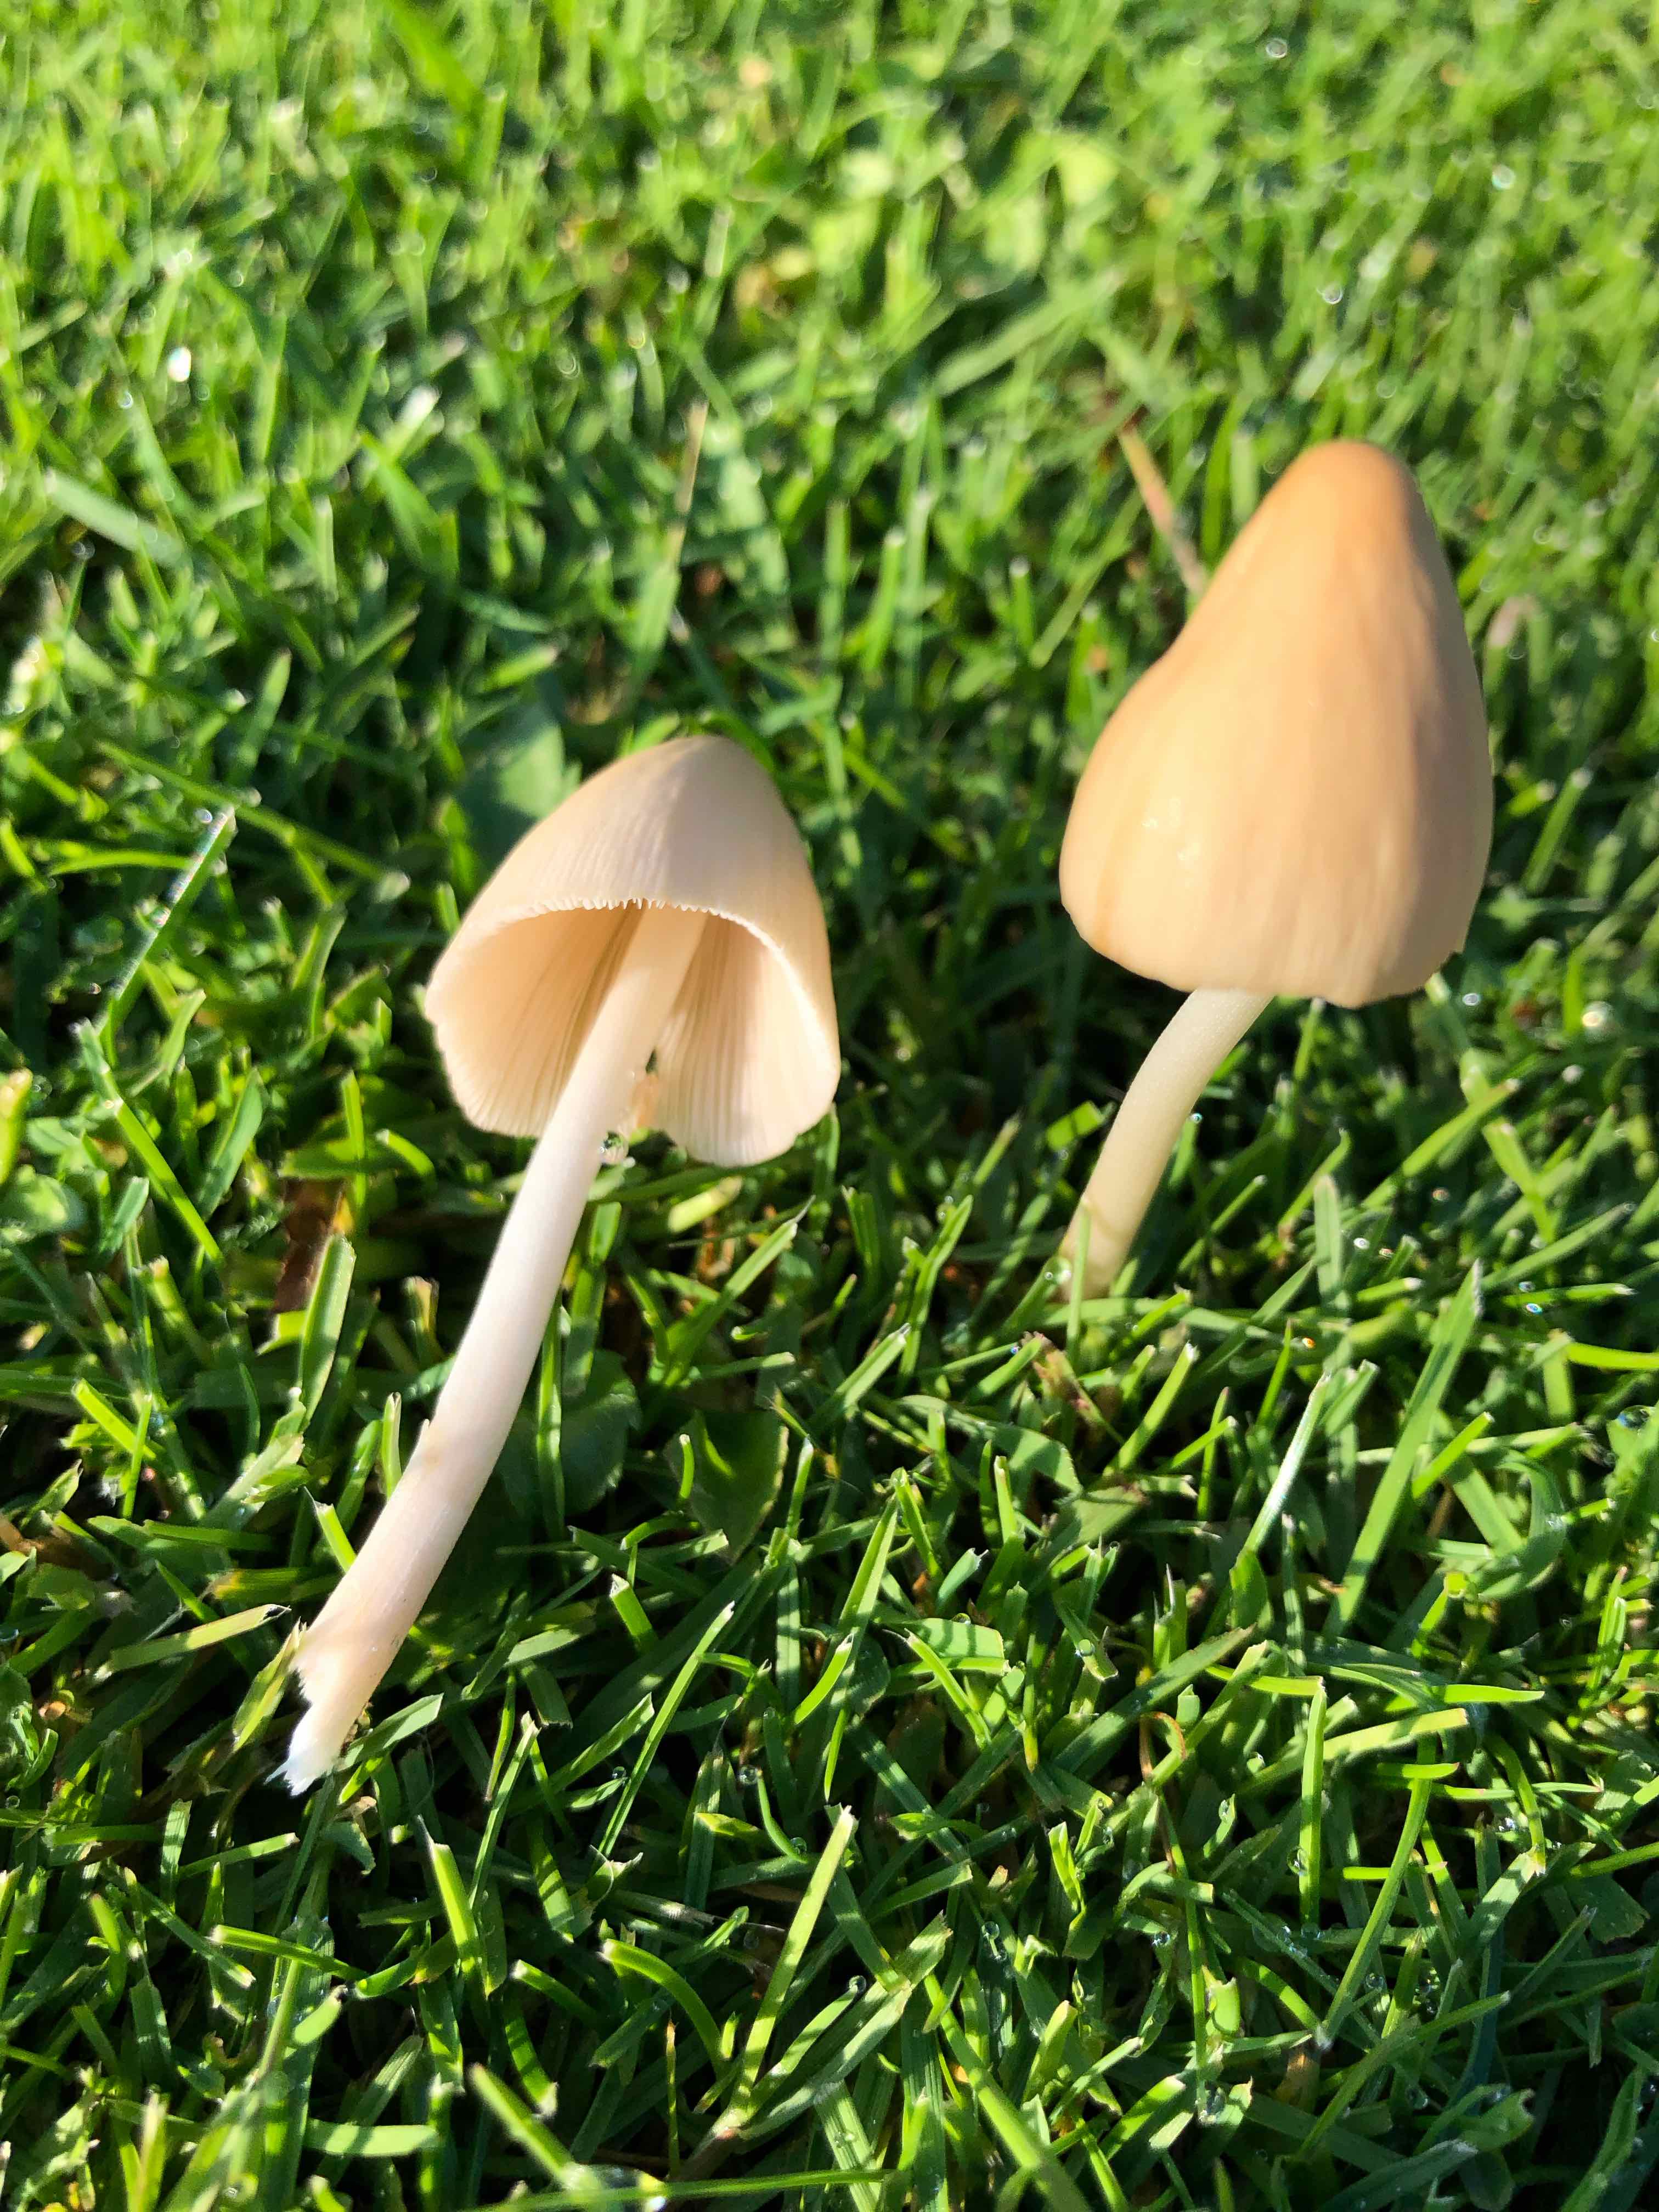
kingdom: Fungi
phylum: Basidiomycota
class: Agaricomycetes
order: Agaricales
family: Bolbitiaceae
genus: Conocybe
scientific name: Conocybe apala
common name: mælkehvid keglehat
